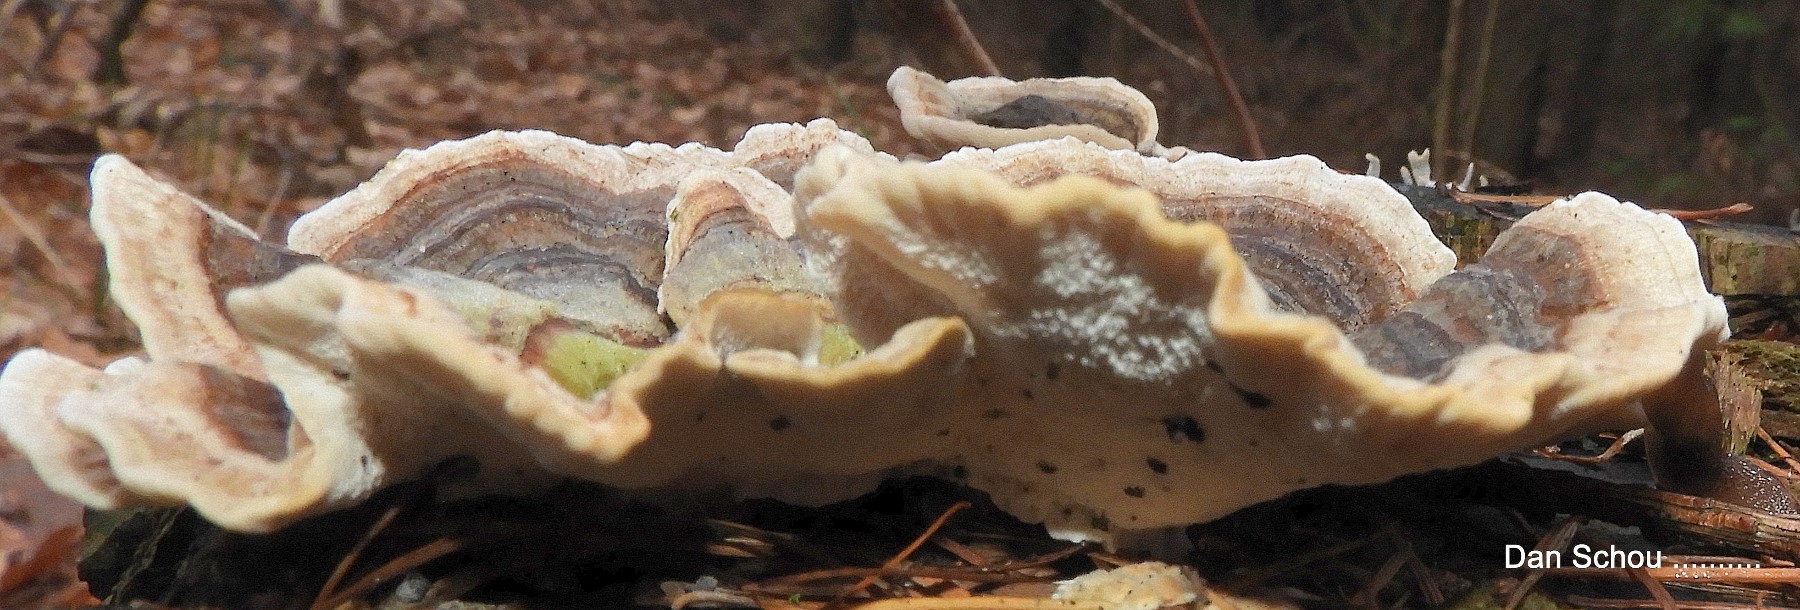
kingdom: Fungi
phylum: Basidiomycota
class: Agaricomycetes
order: Polyporales
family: Polyporaceae
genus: Trametes
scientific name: Trametes versicolor
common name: broget læderporesvamp
